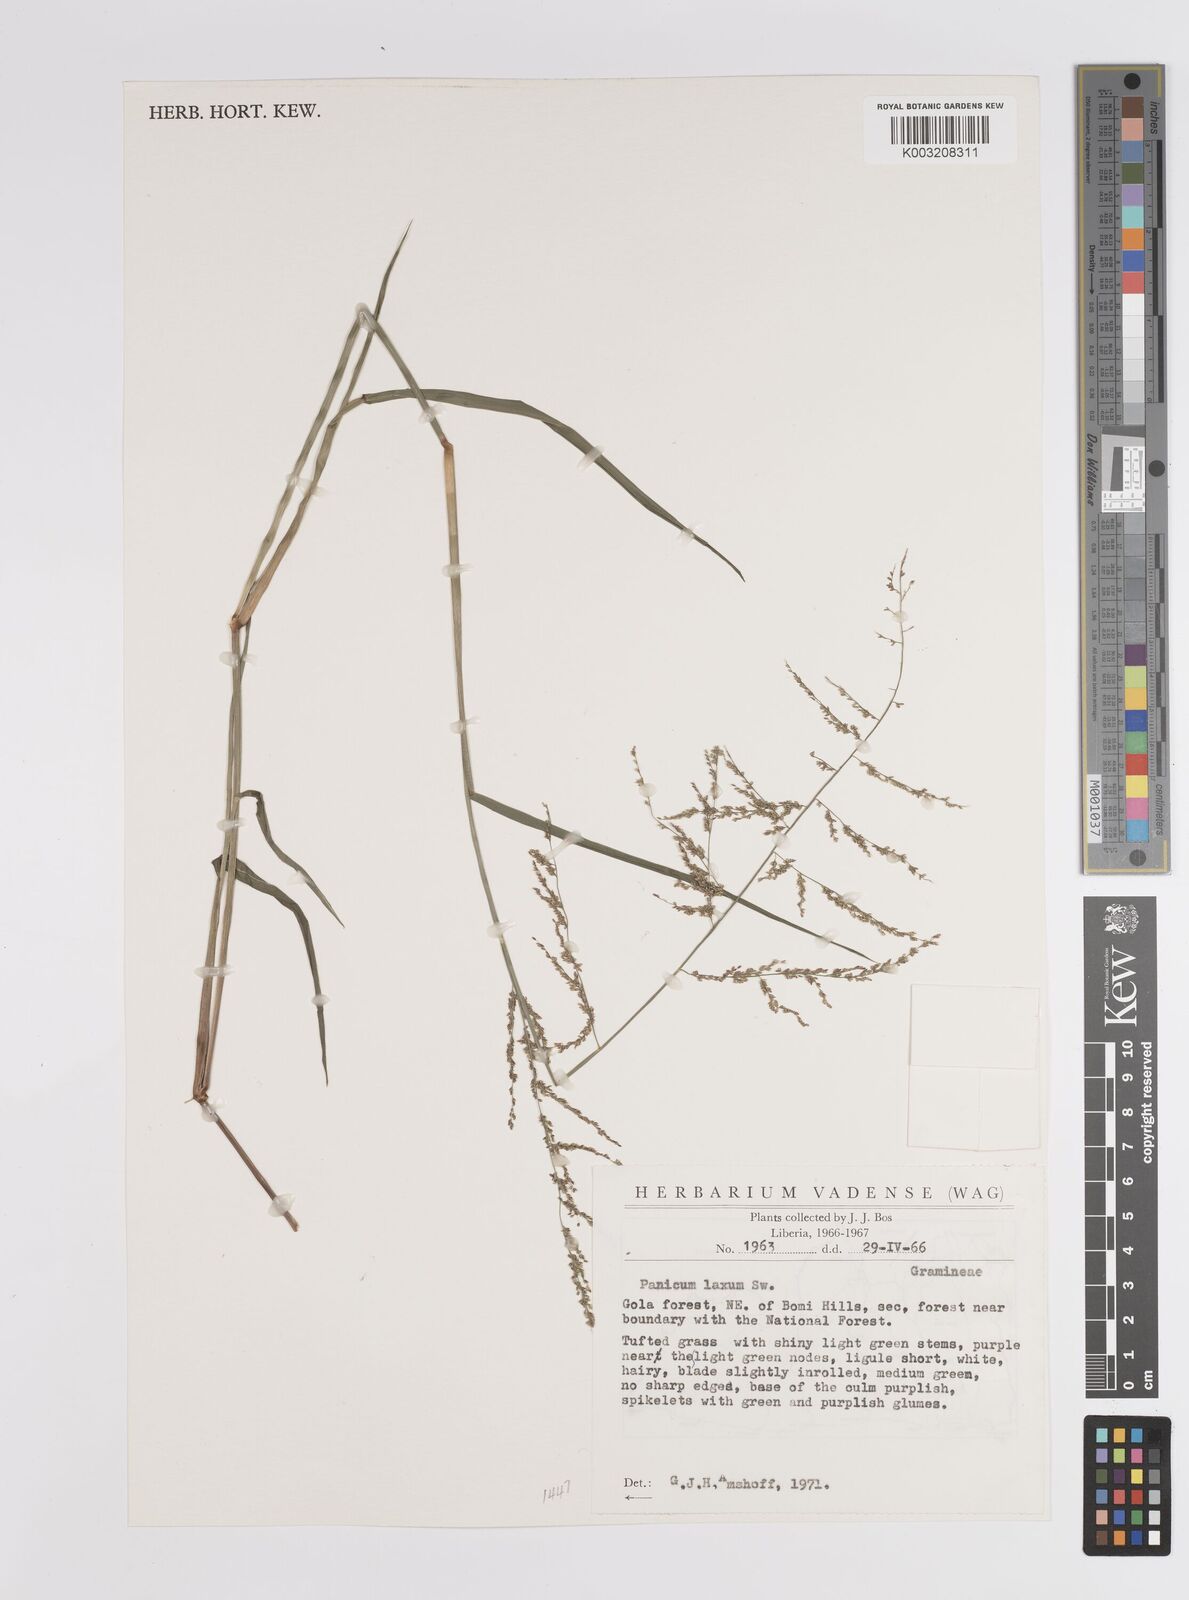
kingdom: Plantae
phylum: Tracheophyta
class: Liliopsida
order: Poales
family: Poaceae
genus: Steinchisma
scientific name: Steinchisma laxum
